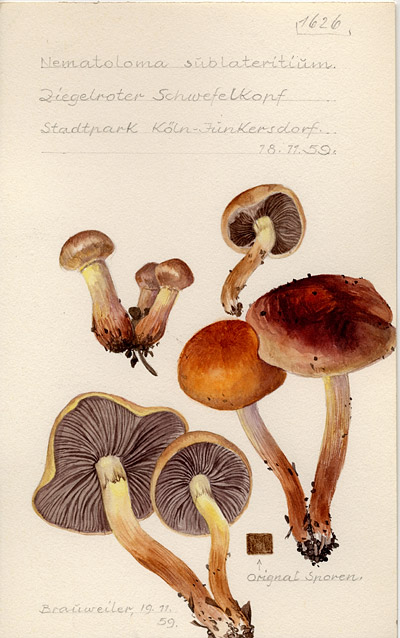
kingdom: Fungi
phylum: Basidiomycota
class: Agaricomycetes
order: Agaricales
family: Strophariaceae
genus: Hypholoma
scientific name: Hypholoma lateritium
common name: Brick caps
